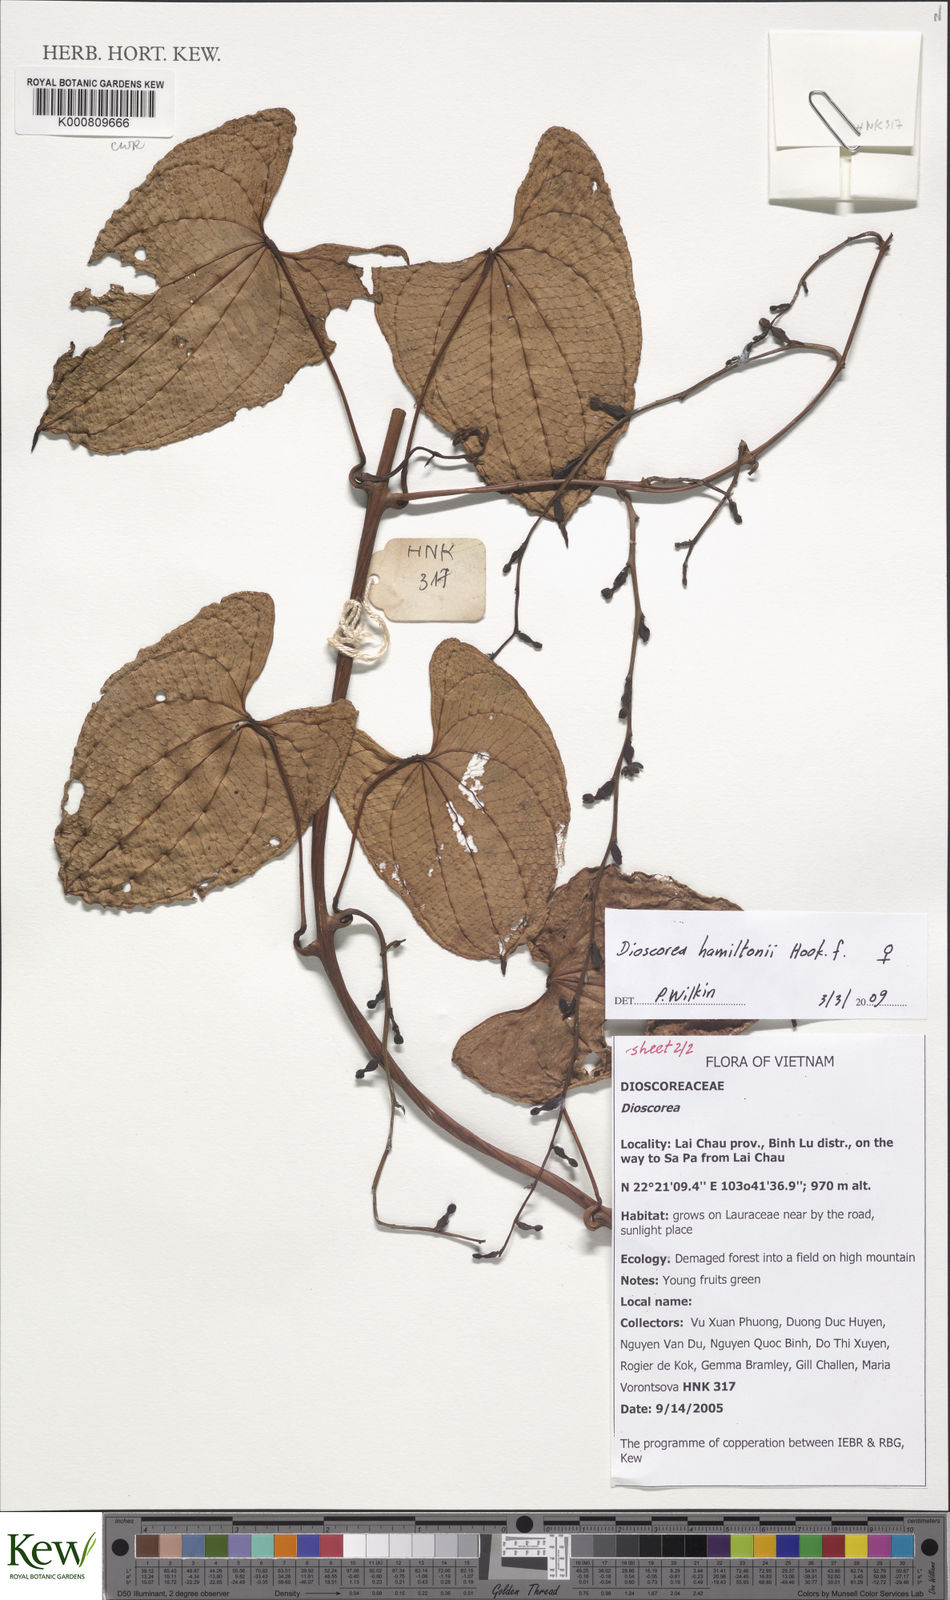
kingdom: Plantae
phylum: Tracheophyta
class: Liliopsida
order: Dioscoreales
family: Dioscoreaceae
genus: Dioscorea
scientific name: Dioscorea hamiltonii
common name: Mountain yam
